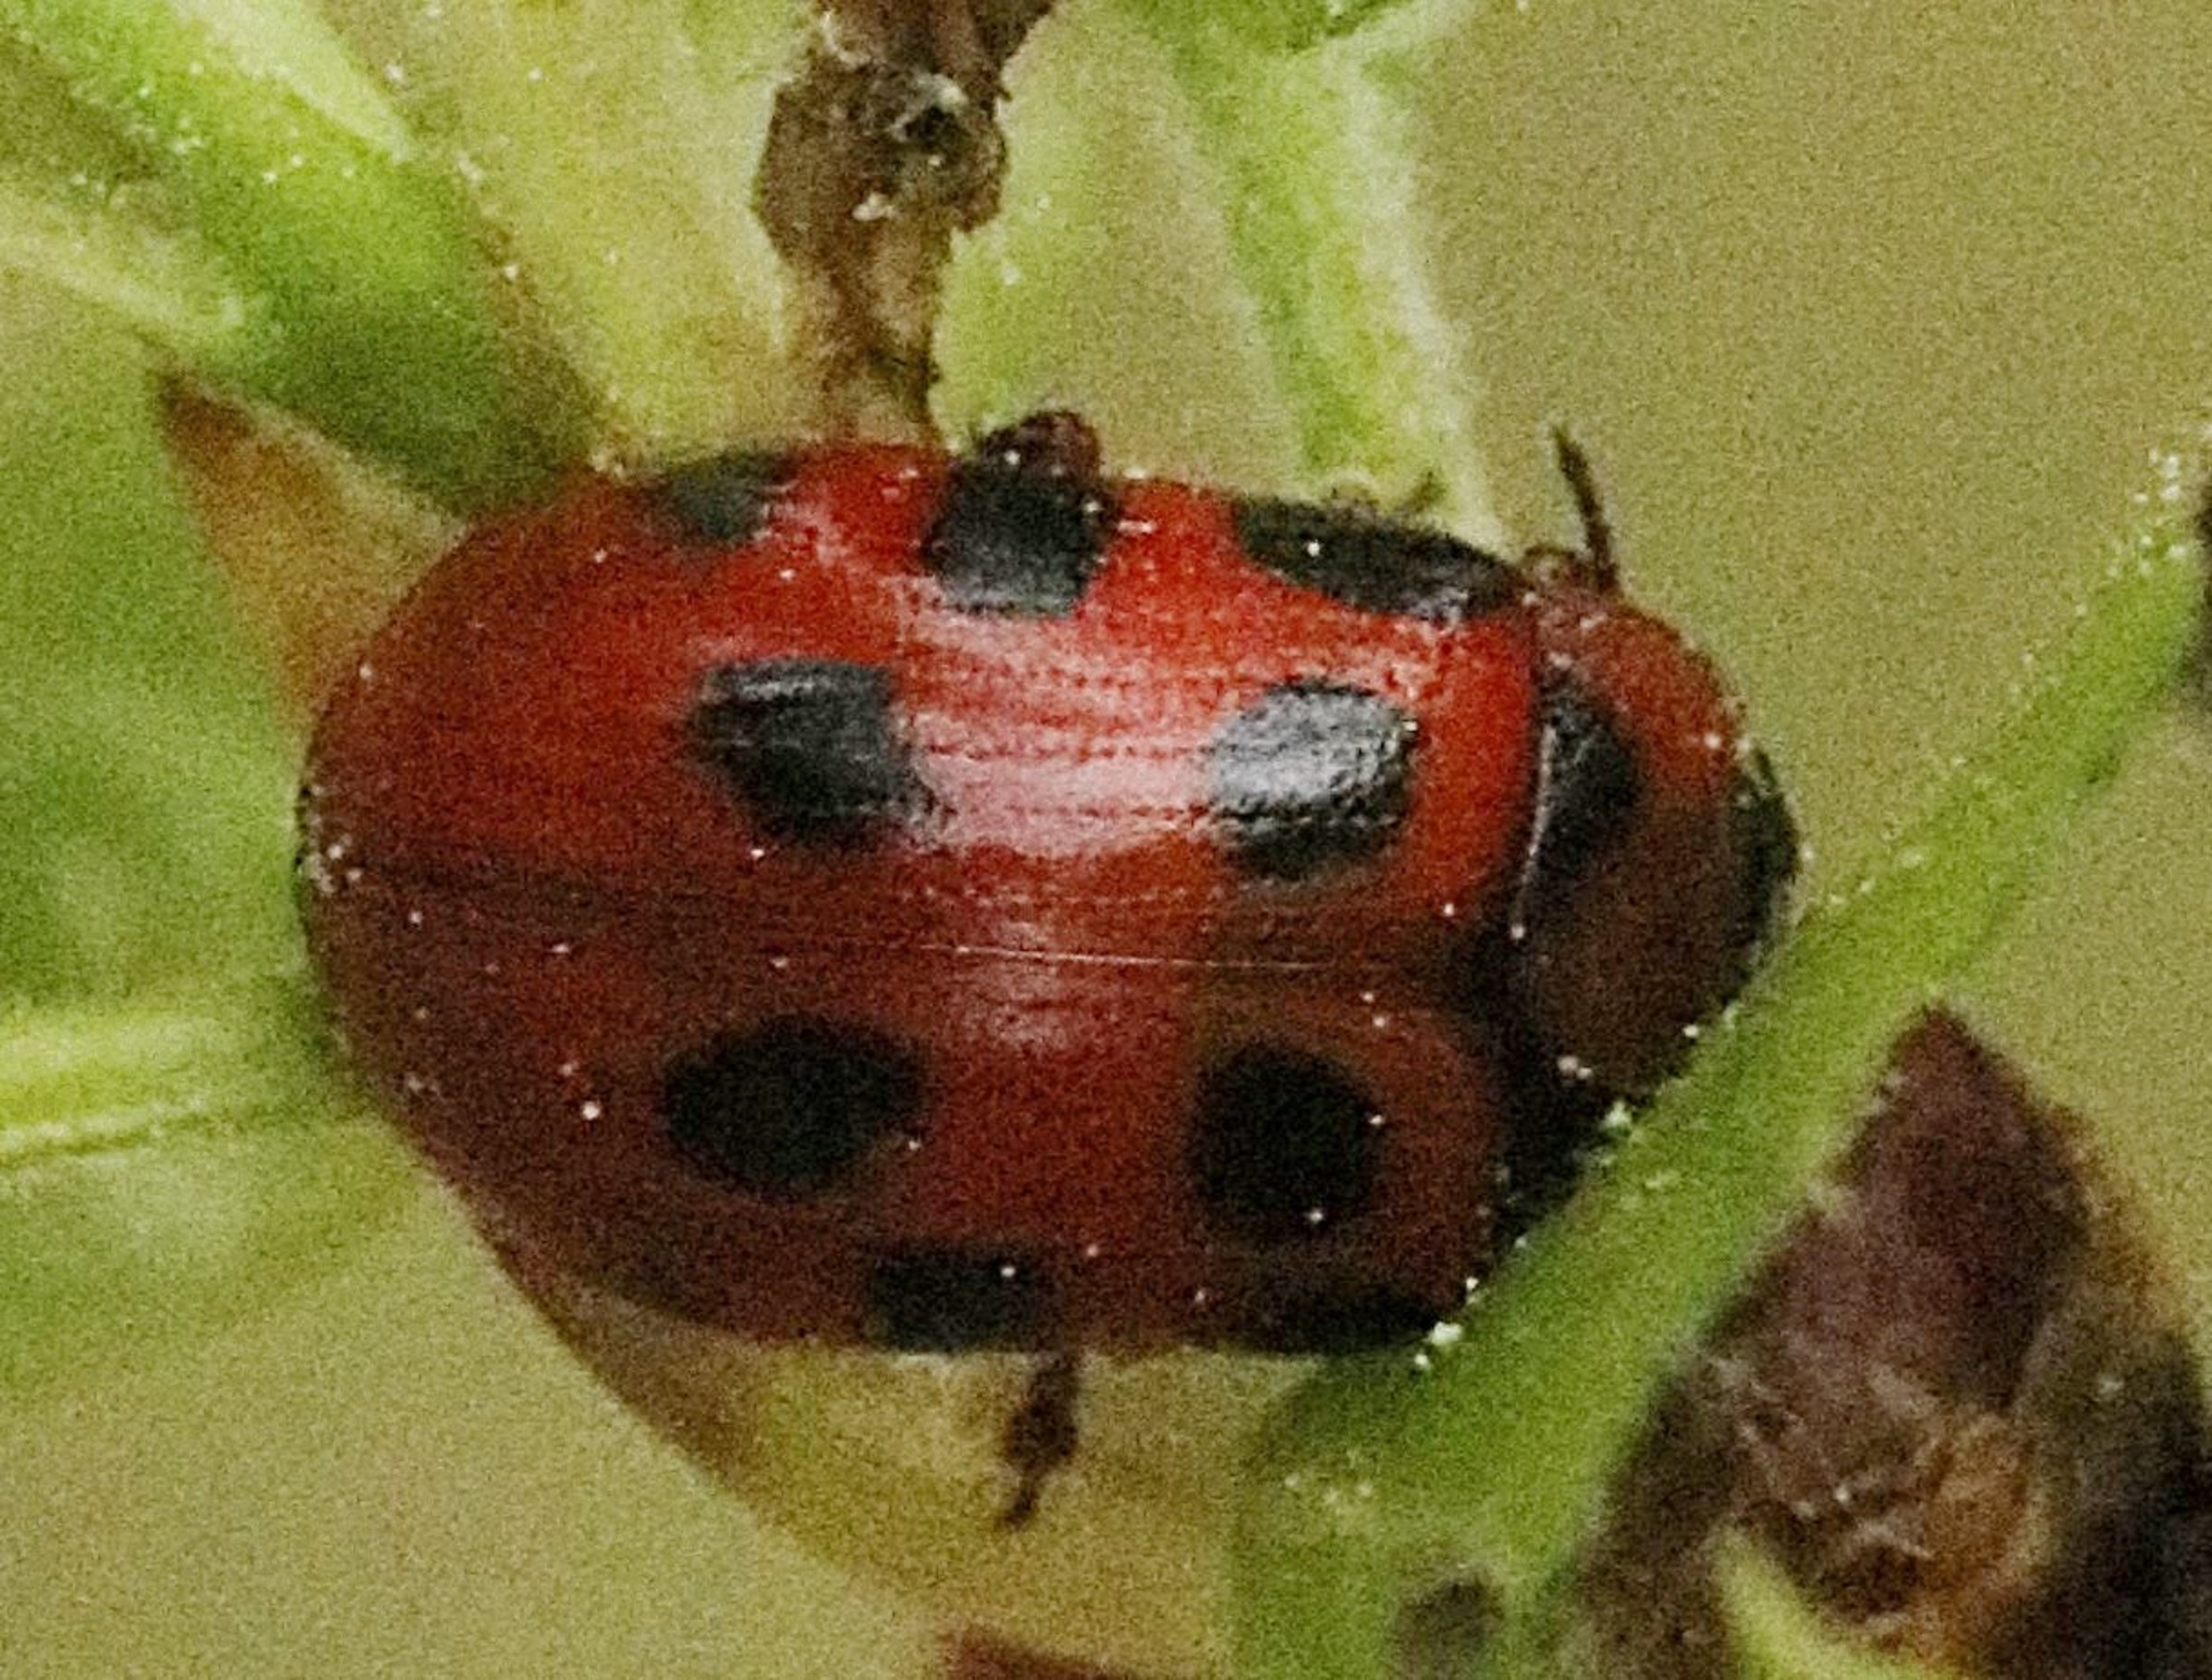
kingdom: Animalia
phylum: Arthropoda
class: Insecta
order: Coleoptera
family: Chrysomelidae
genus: Gonioctena
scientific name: Gonioctena decemnotata
